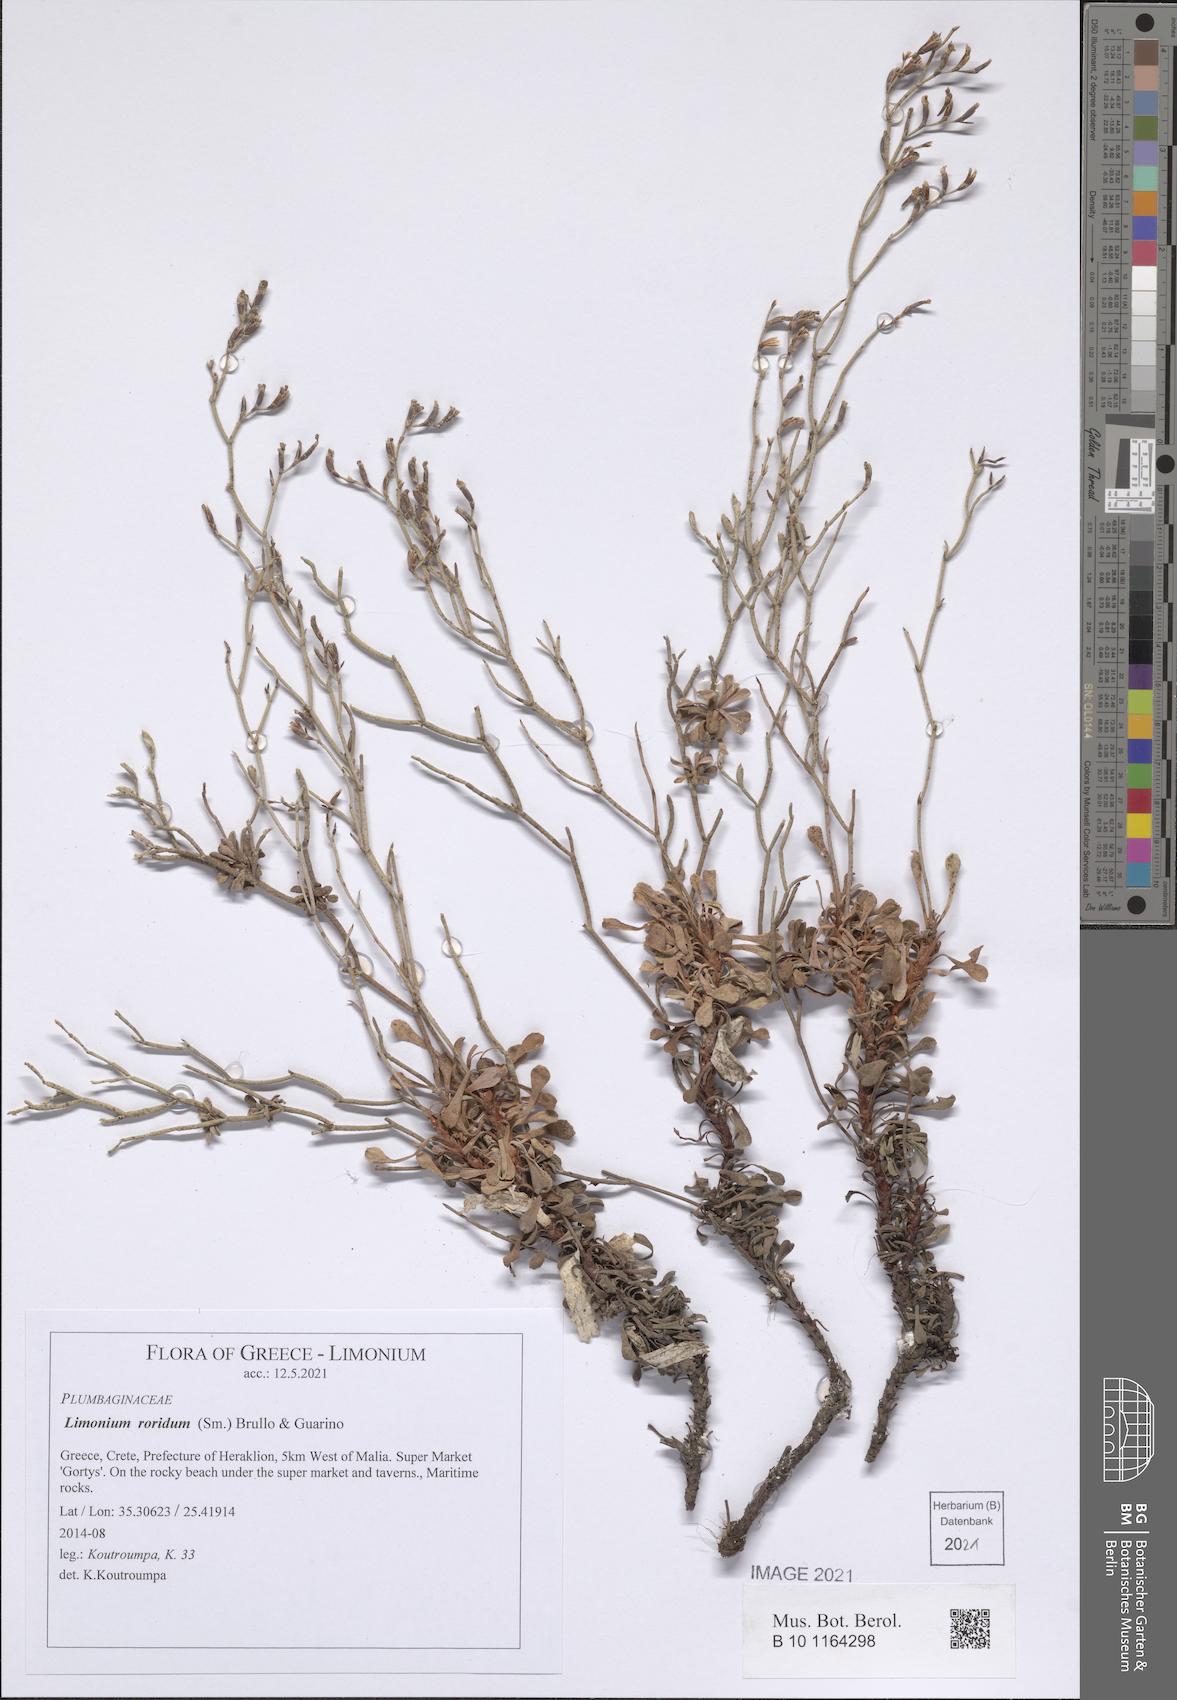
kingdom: Plantae
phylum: Tracheophyta
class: Magnoliopsida
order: Caryophyllales
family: Plumbaginaceae
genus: Limonium
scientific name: Limonium roridum
